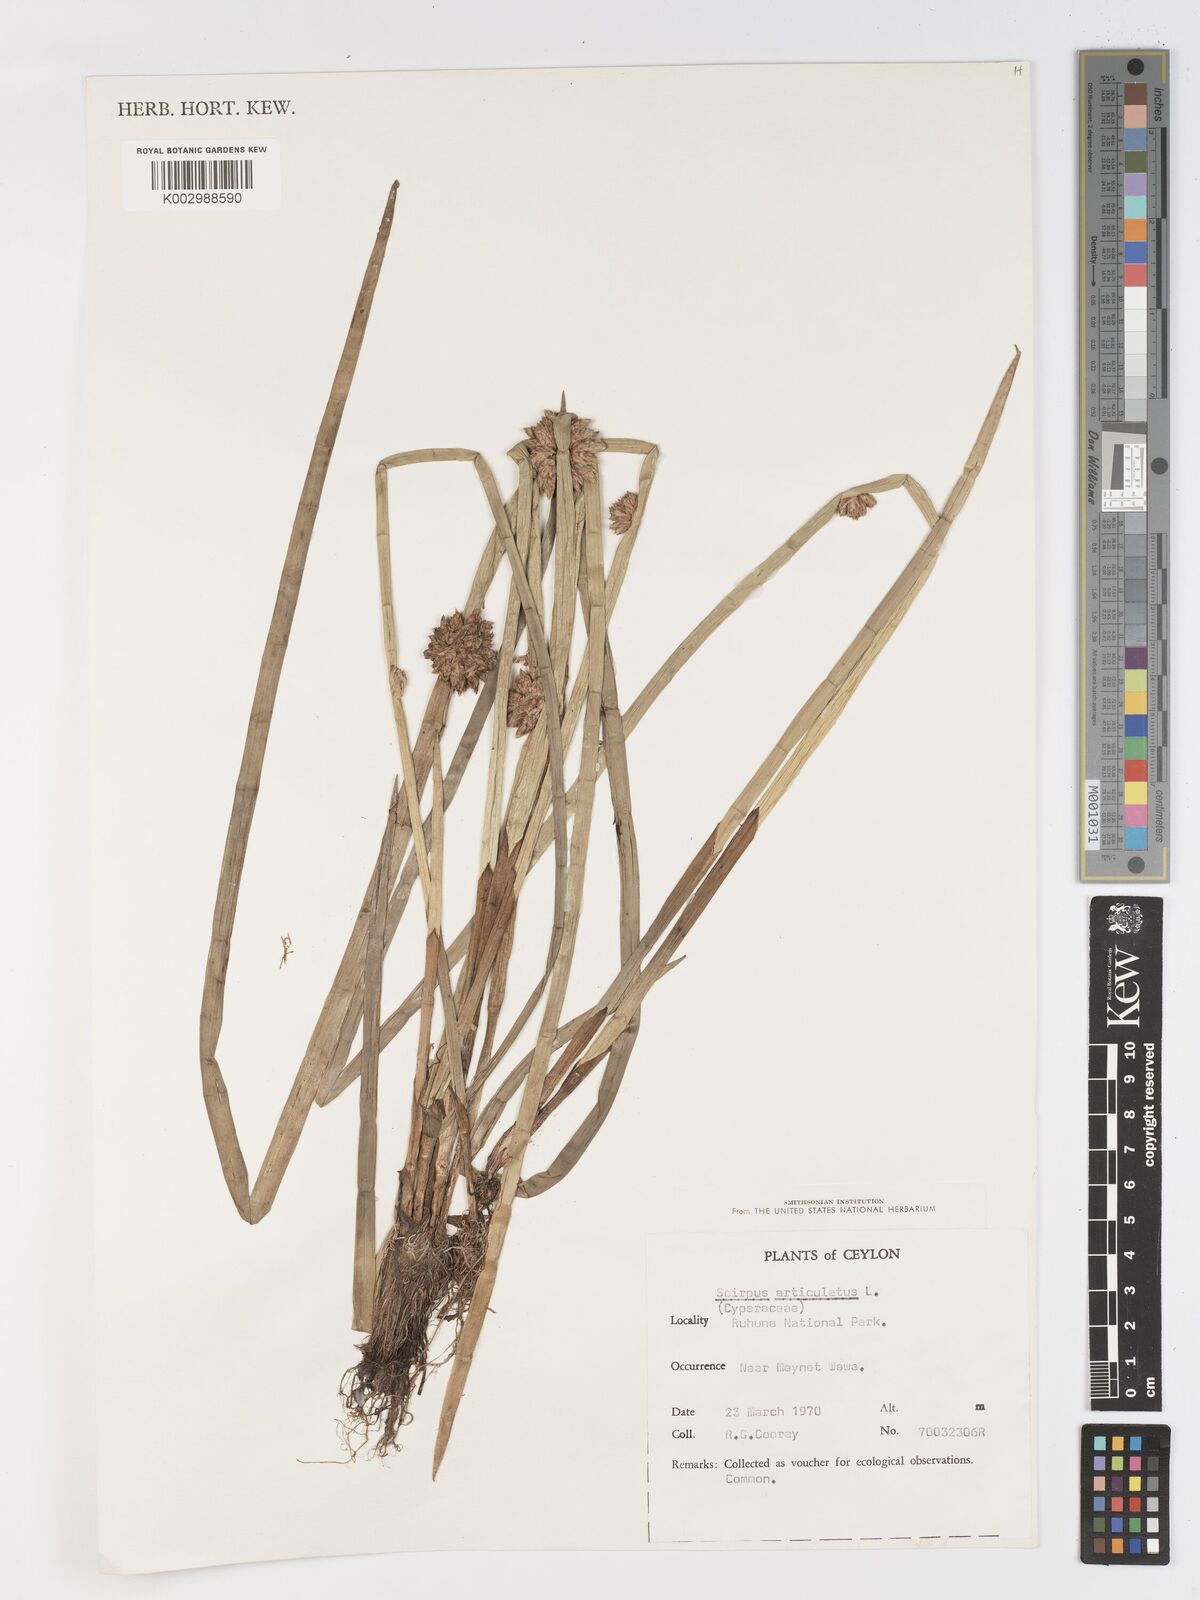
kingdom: Plantae
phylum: Tracheophyta
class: Liliopsida
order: Poales
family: Cyperaceae
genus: Schoenoplectiella
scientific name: Schoenoplectiella articulata
